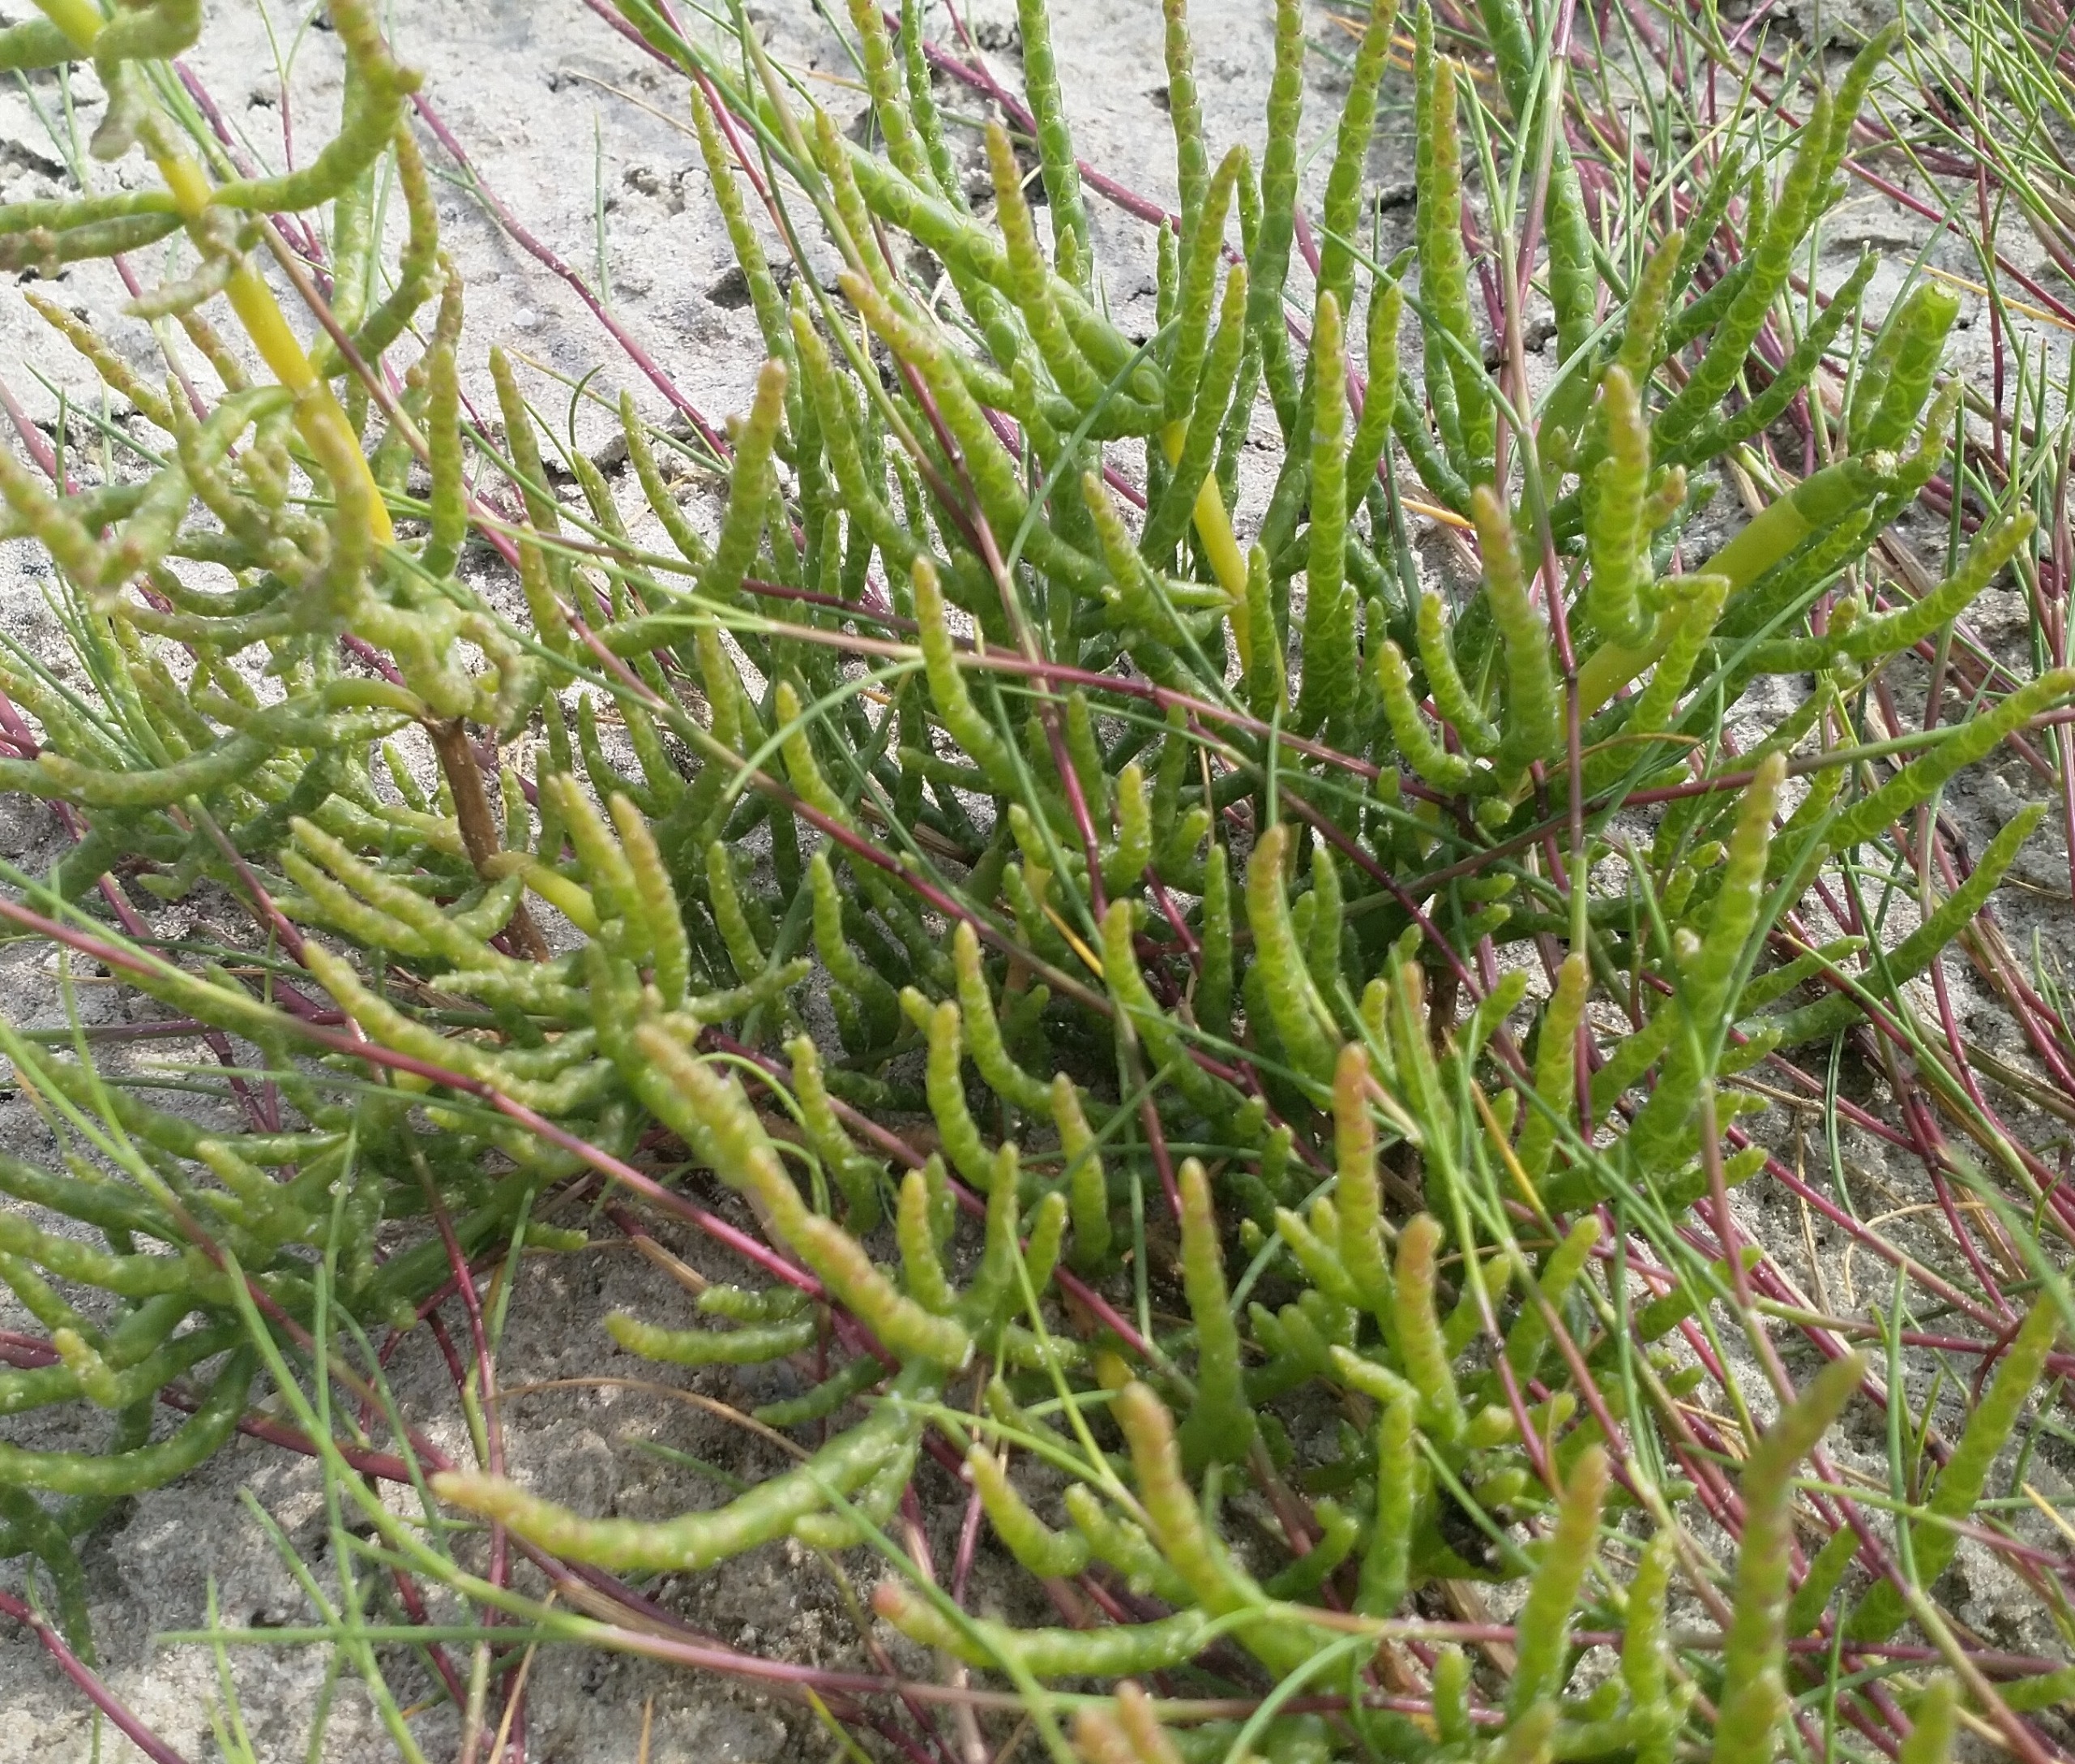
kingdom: Plantae
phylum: Tracheophyta
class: Magnoliopsida
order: Caryophyllales
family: Amaranthaceae
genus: Salicornia
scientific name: Salicornia europaea
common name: Almindelig salturt
